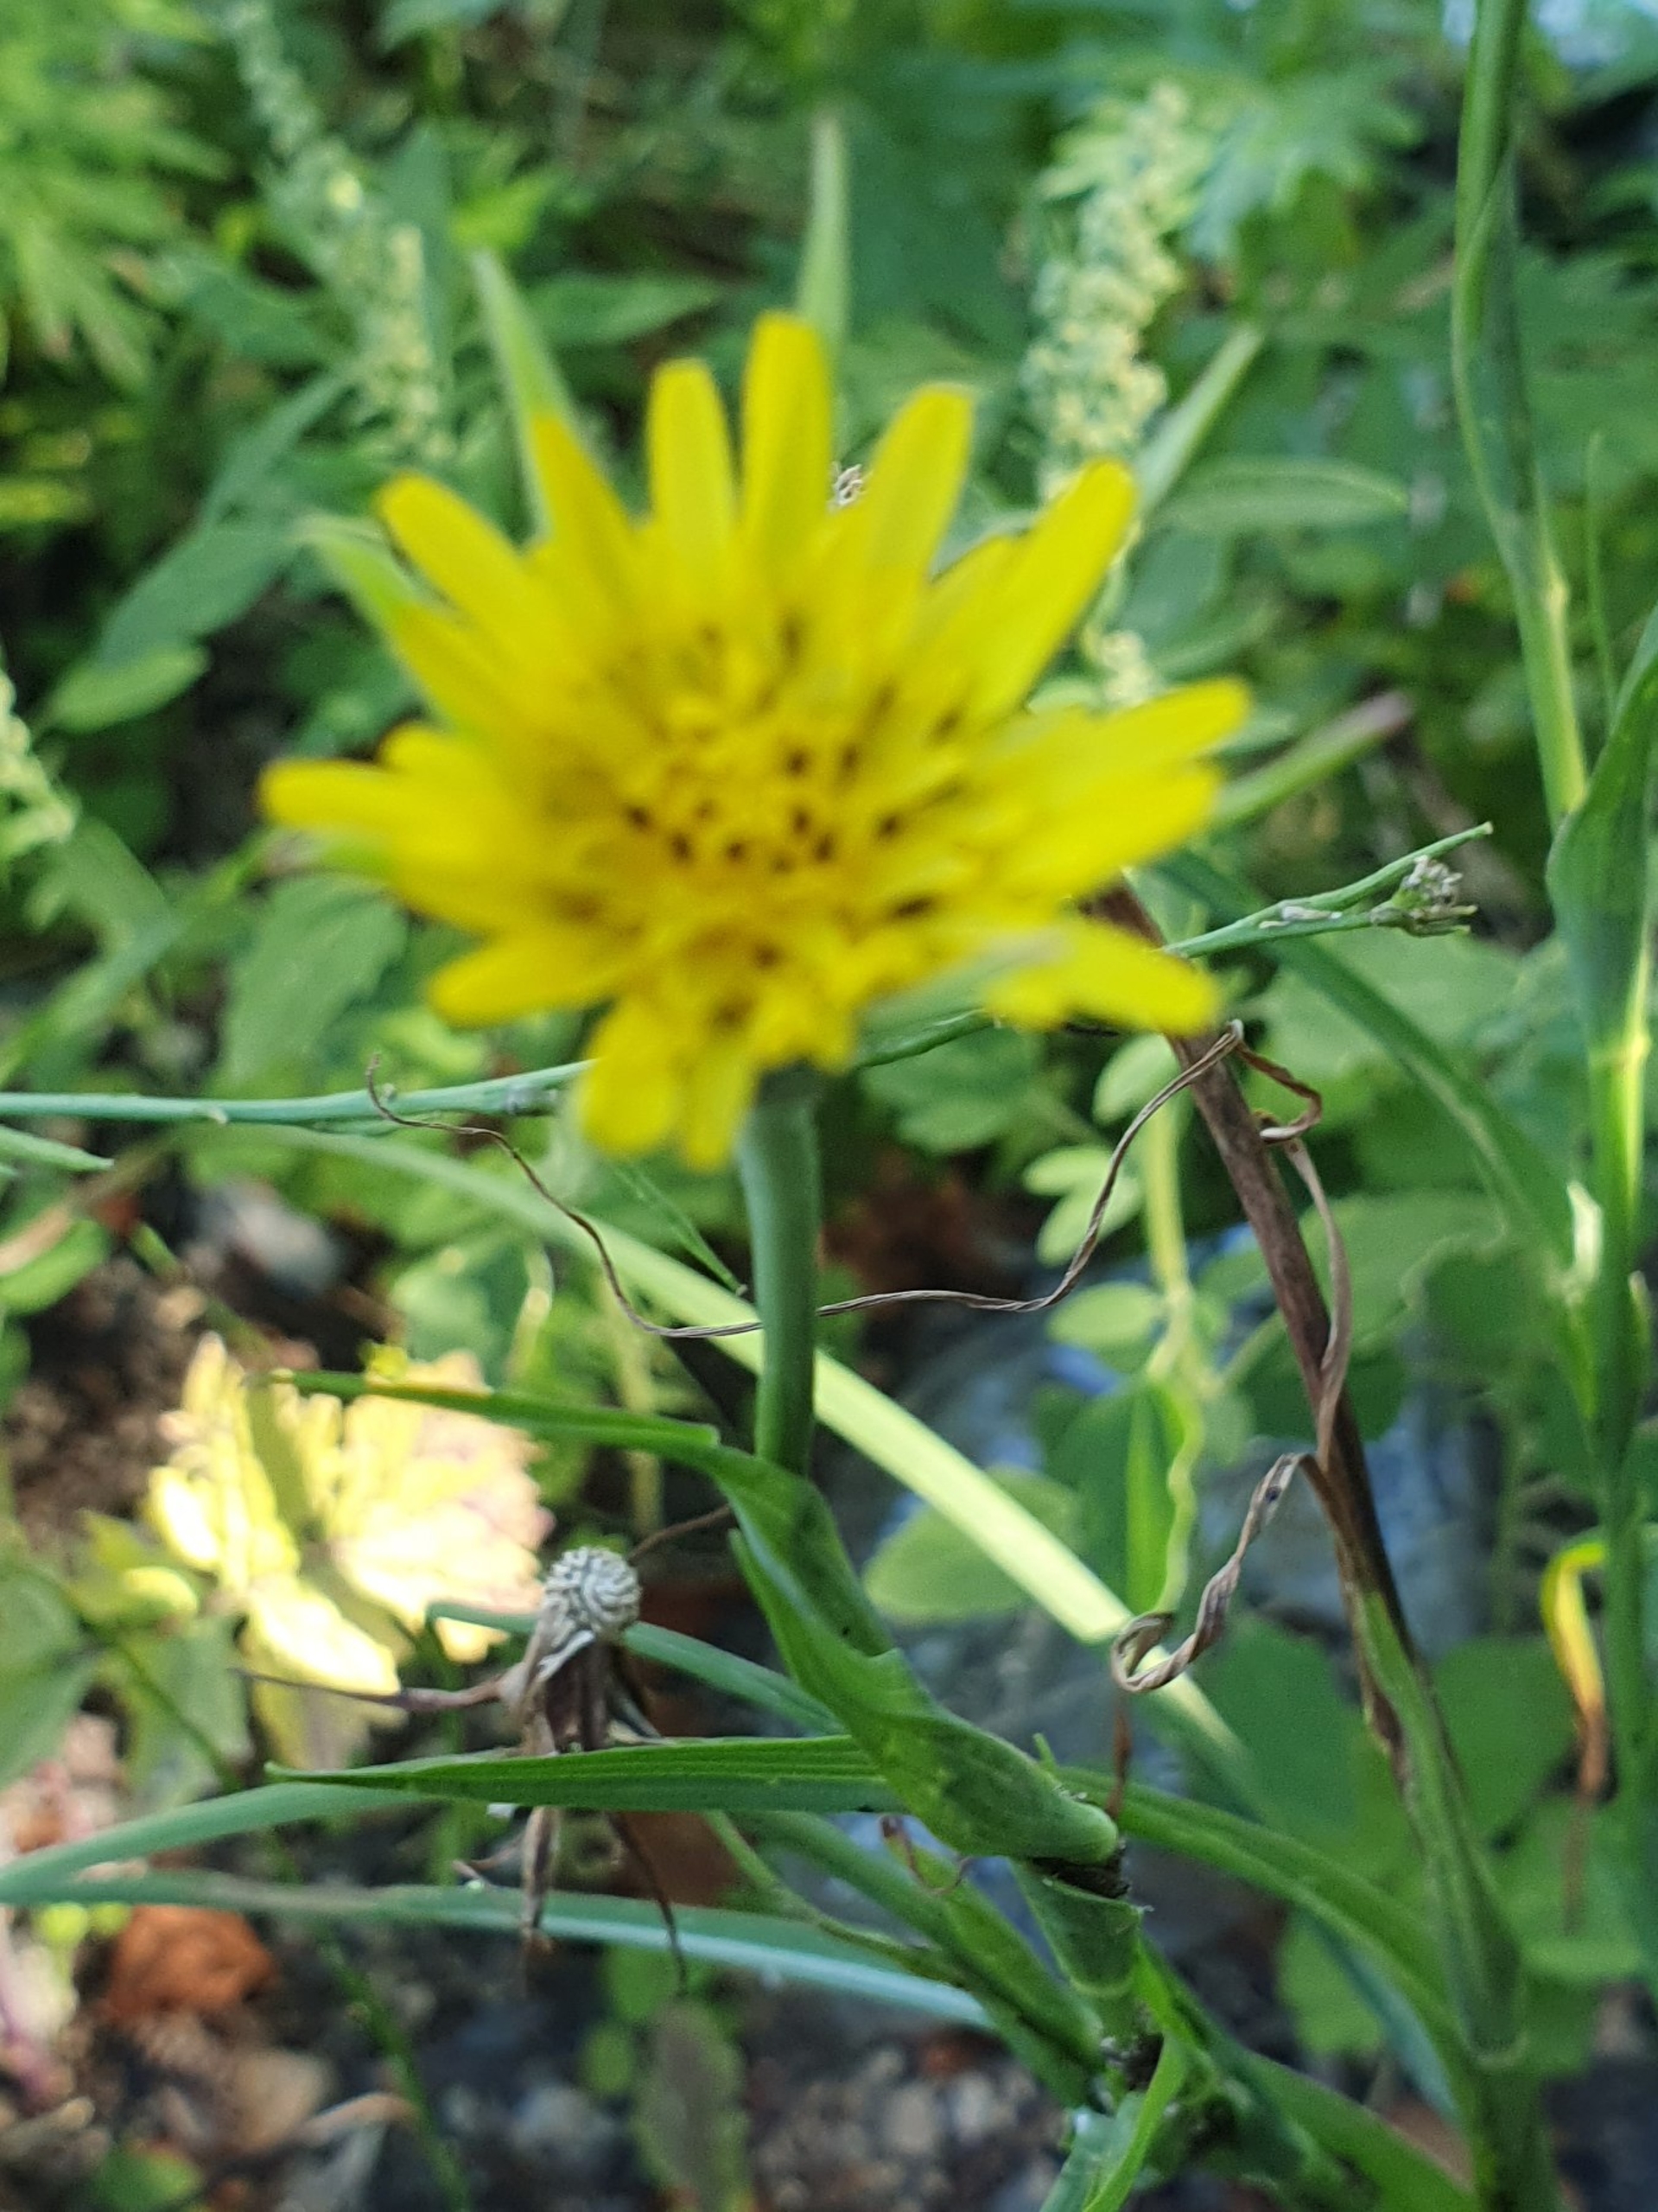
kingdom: Plantae
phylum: Tracheophyta
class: Magnoliopsida
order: Asterales
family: Asteraceae
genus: Tragopogon
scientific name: Tragopogon minor
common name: Småkronet gedeskæg
